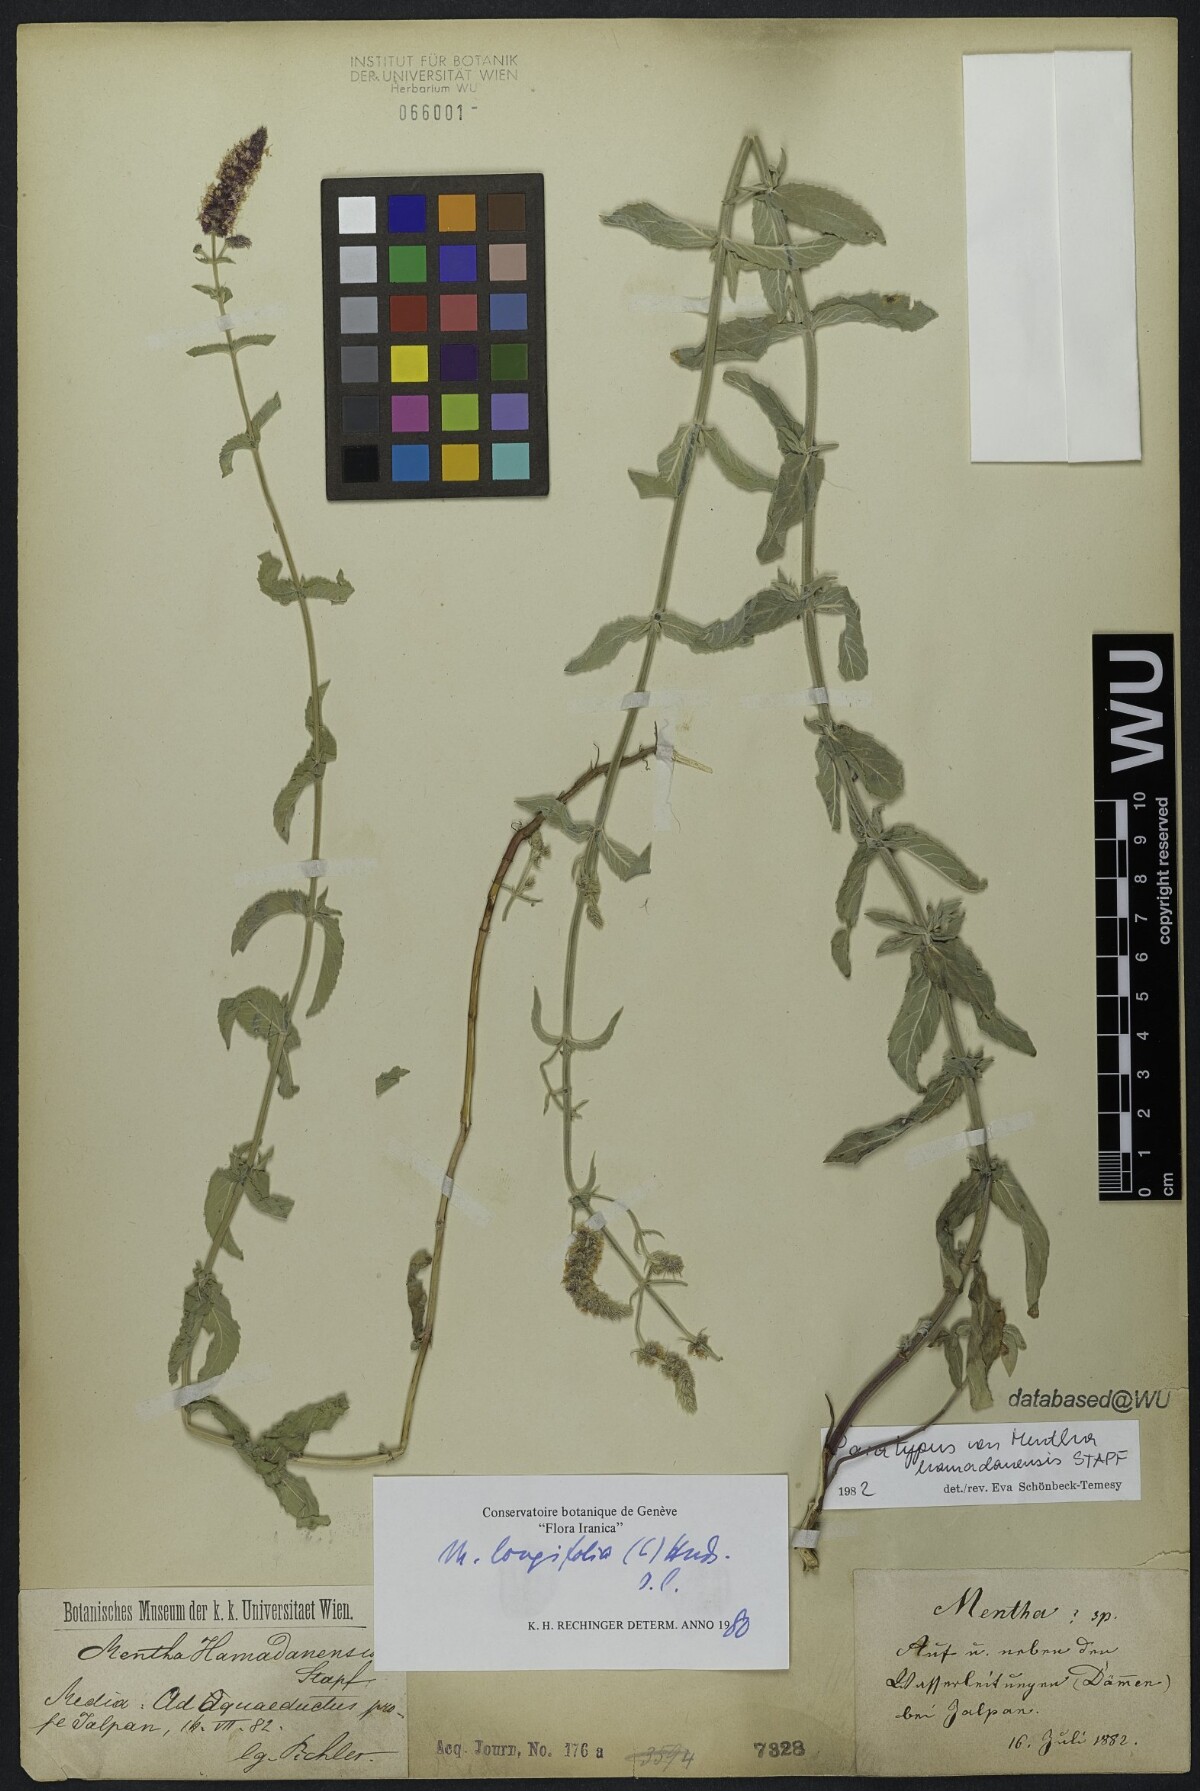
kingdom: Plantae
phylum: Tracheophyta
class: Magnoliopsida
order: Lamiales
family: Lamiaceae
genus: Mentha
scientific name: Mentha longifolia
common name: Horse mint
